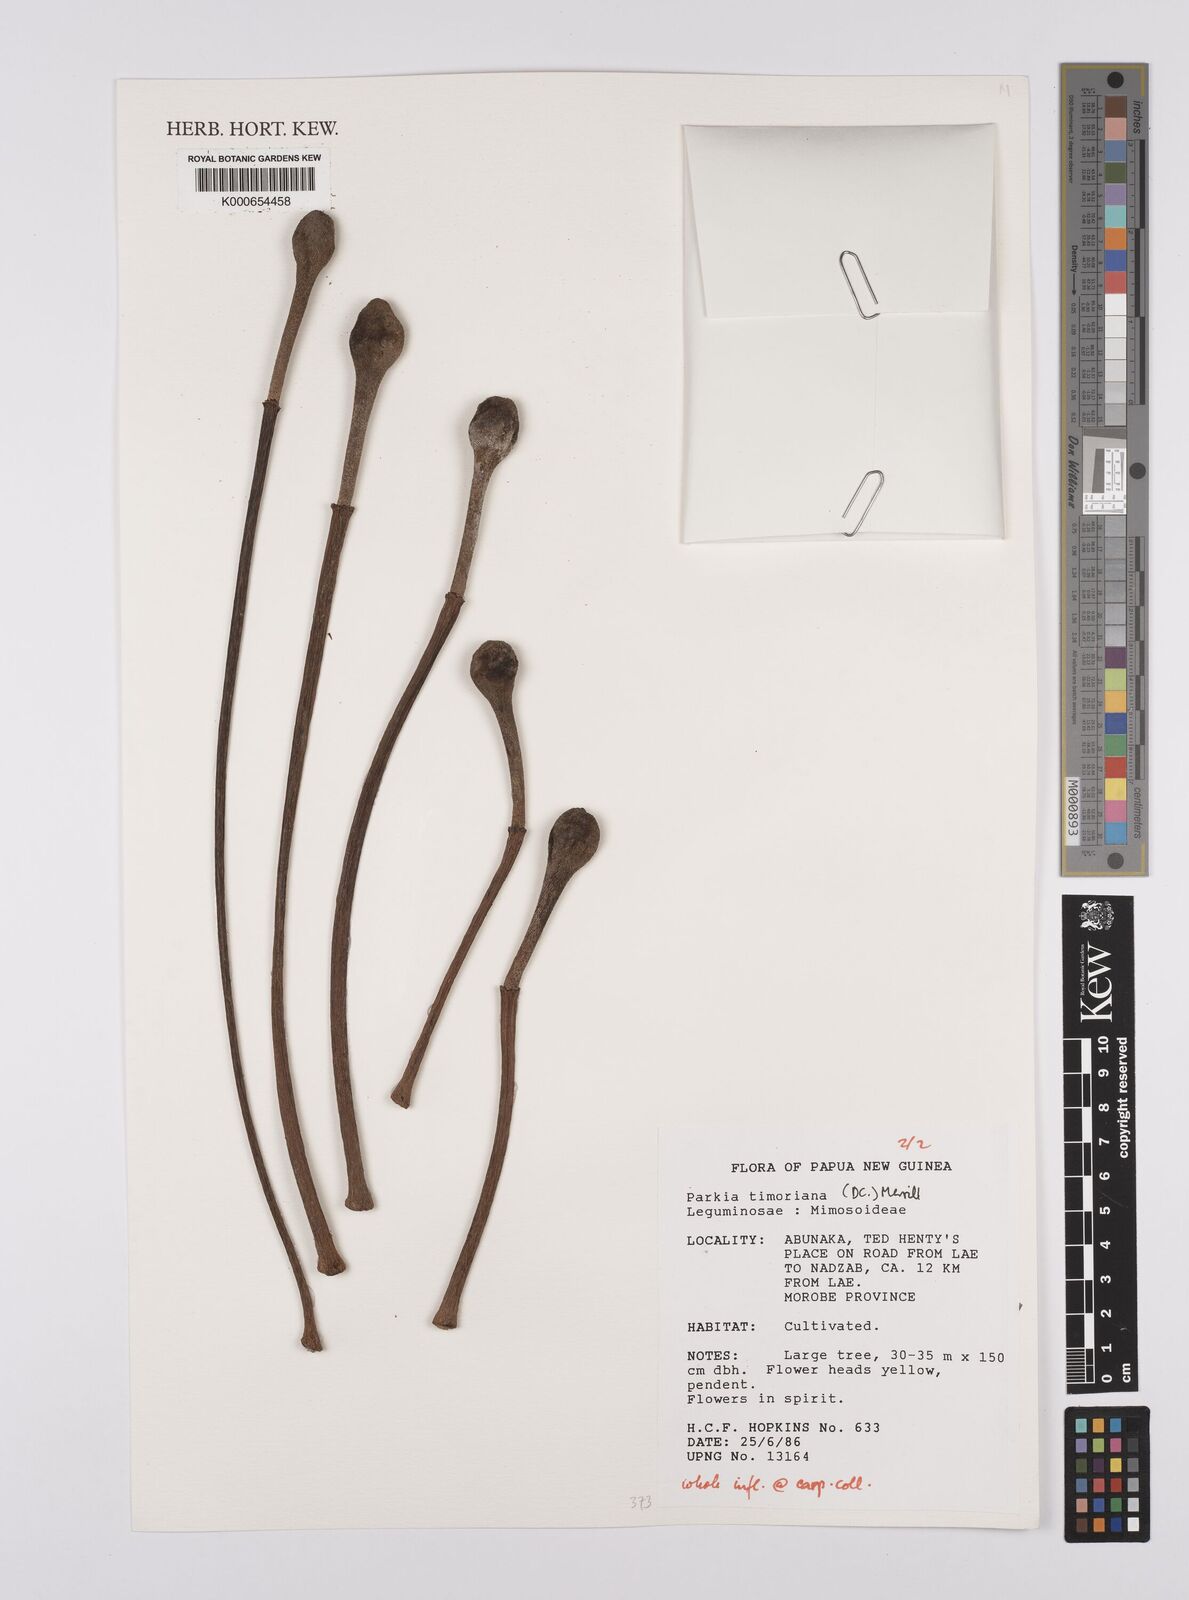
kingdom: Plantae
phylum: Tracheophyta
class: Magnoliopsida
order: Fabales
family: Fabaceae
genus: Parkia
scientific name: Parkia timoriana
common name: Legume
